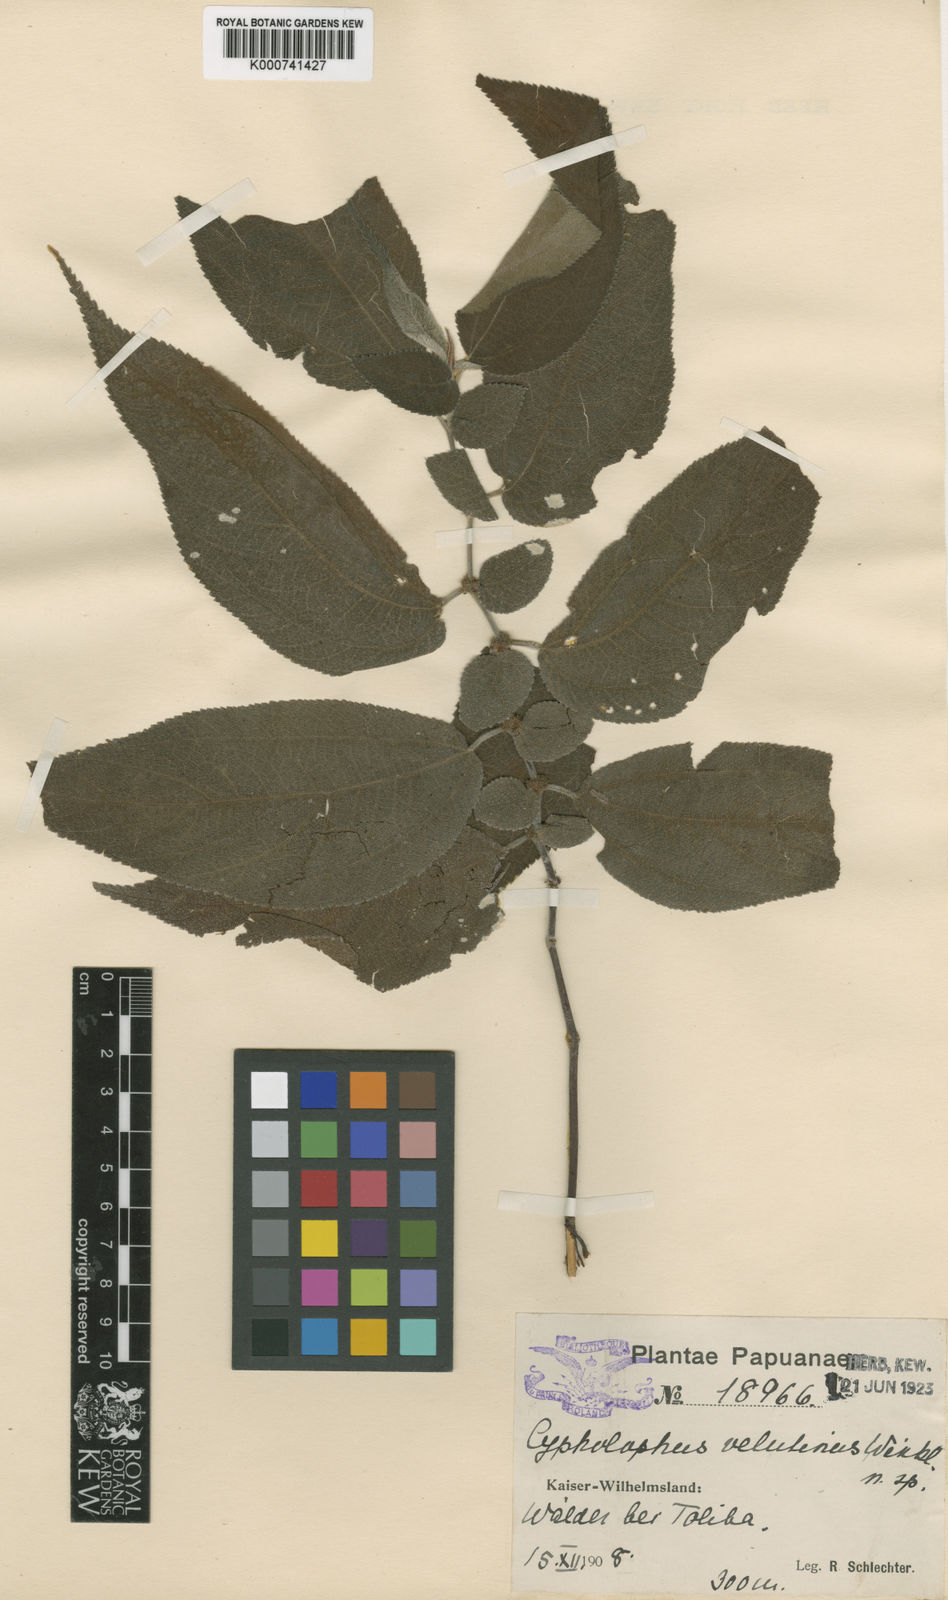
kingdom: Plantae
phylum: Tracheophyta
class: Magnoliopsida
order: Rosales
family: Urticaceae
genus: Cypholophus
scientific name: Cypholophus velutinus
